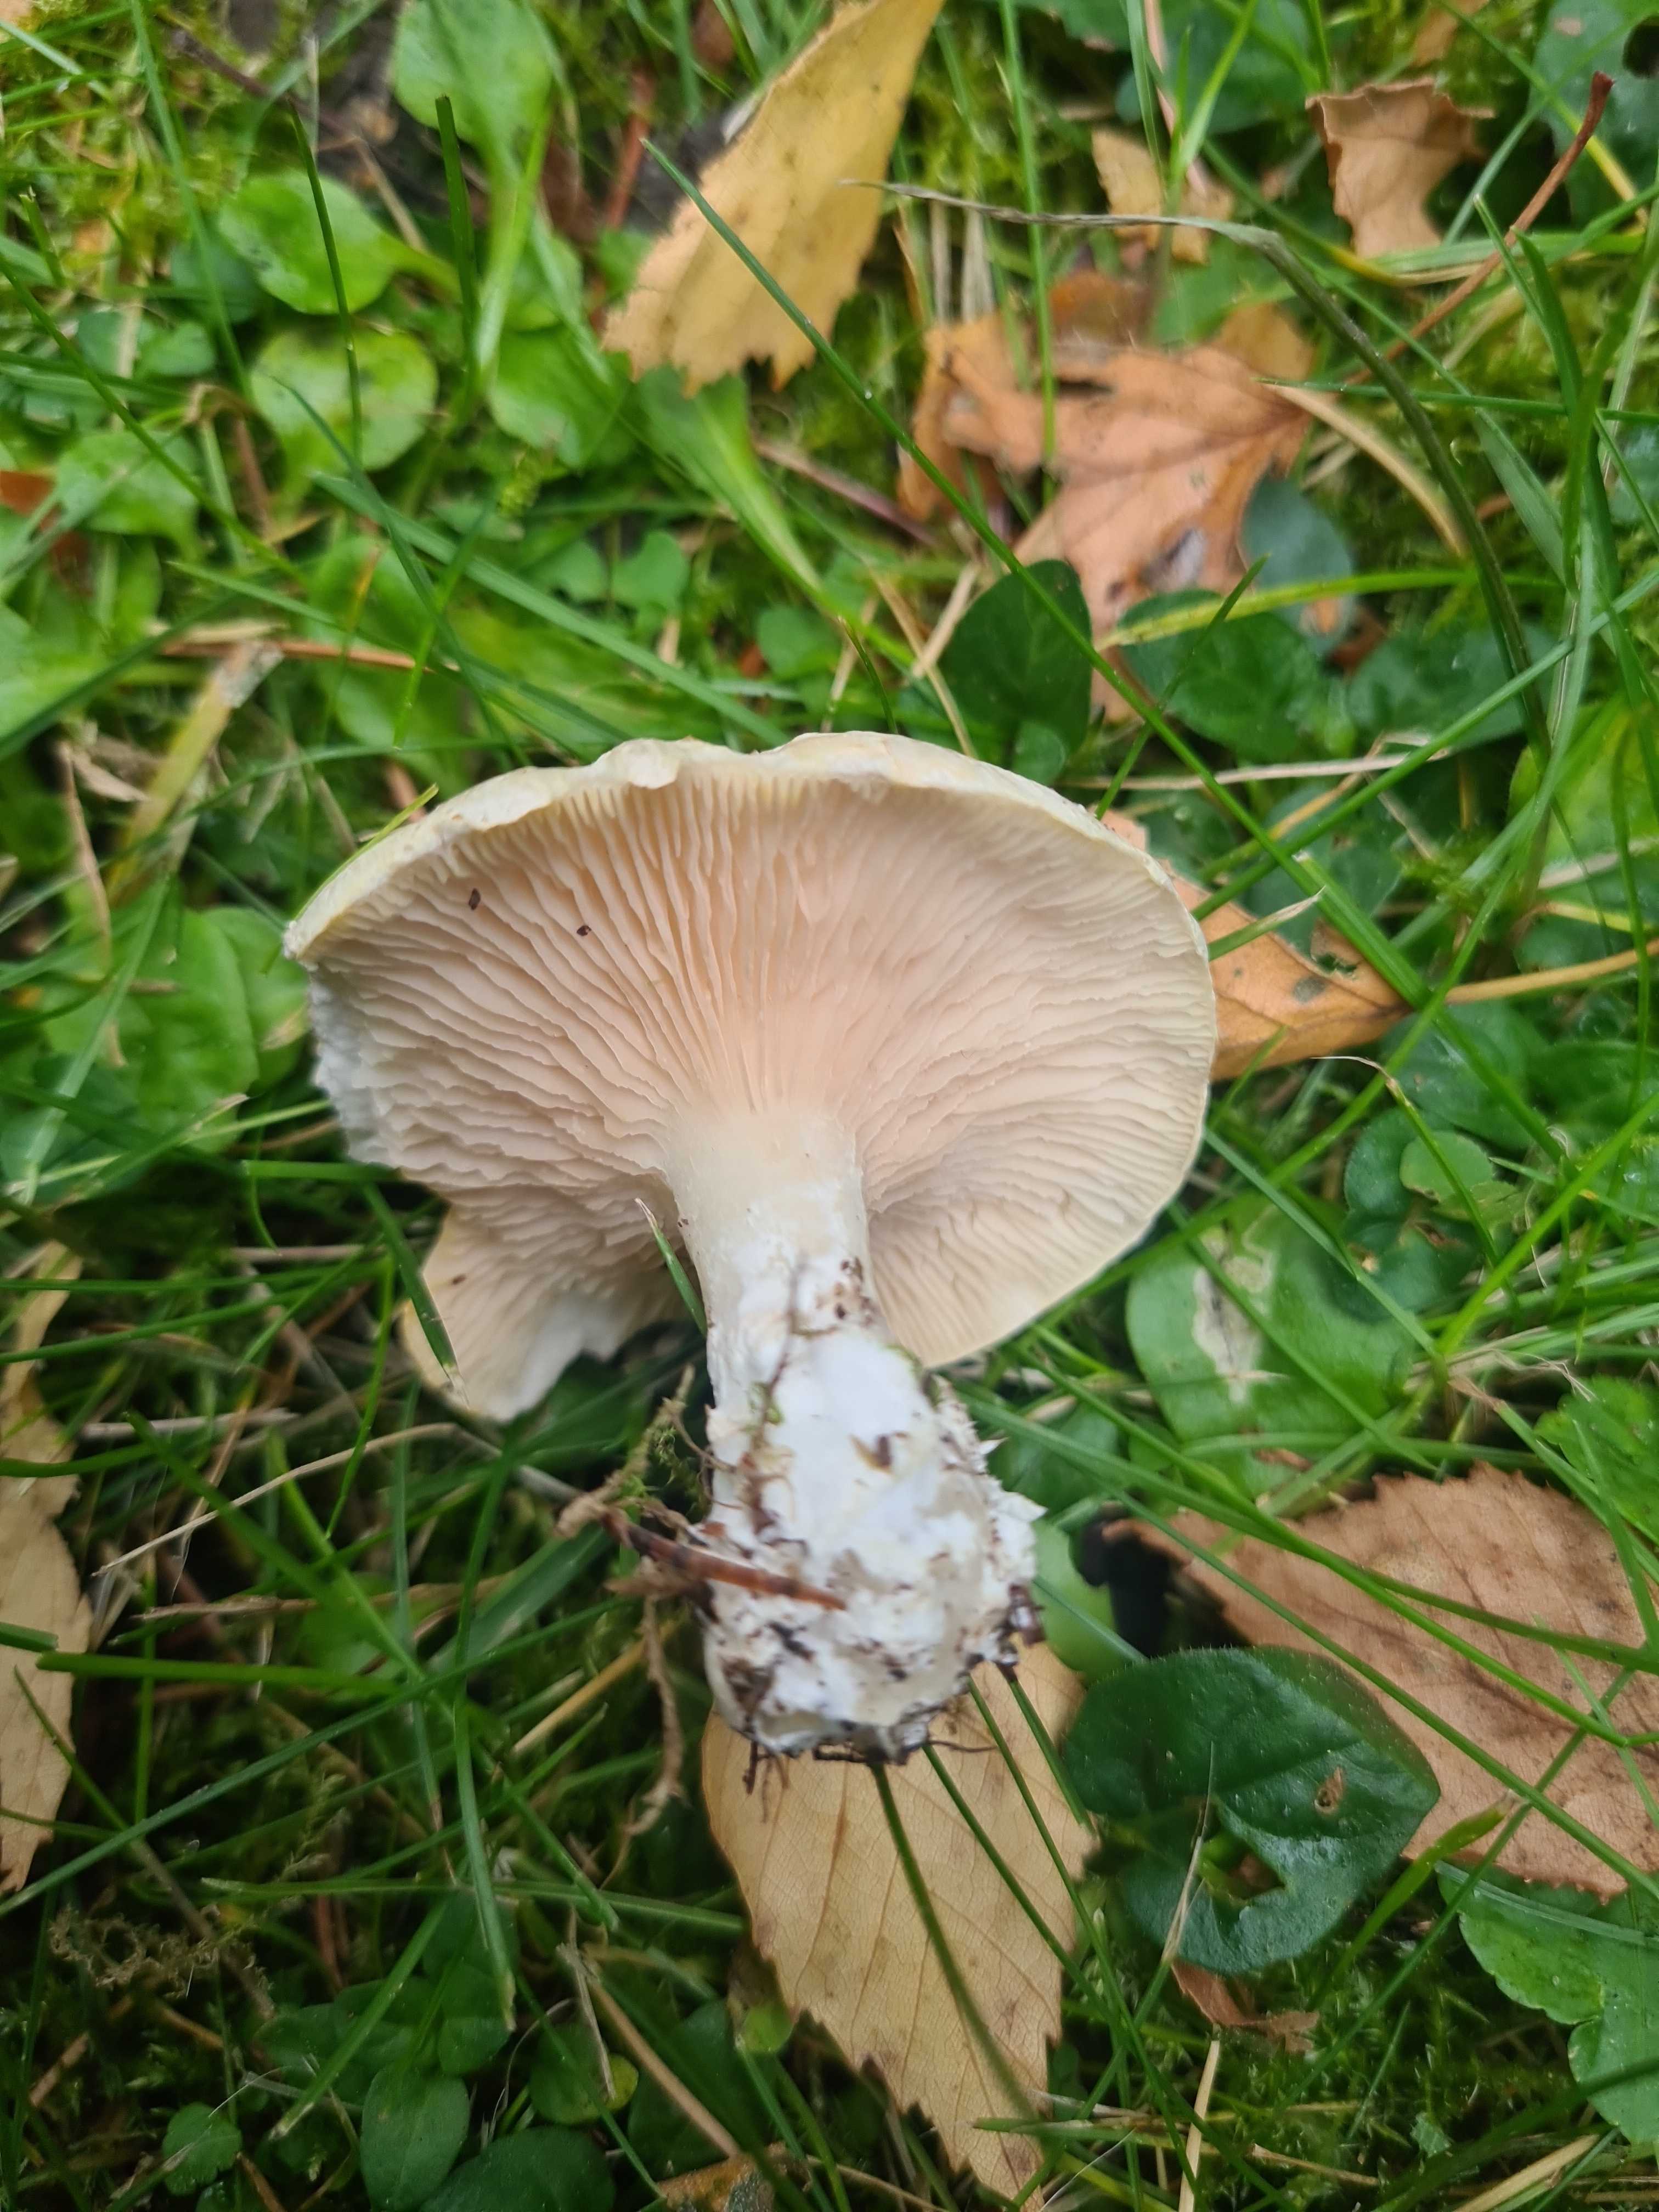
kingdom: Fungi
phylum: Basidiomycota
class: Agaricomycetes
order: Agaricales
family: Entolomataceae
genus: Clitopilus
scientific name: Clitopilus prunulus
